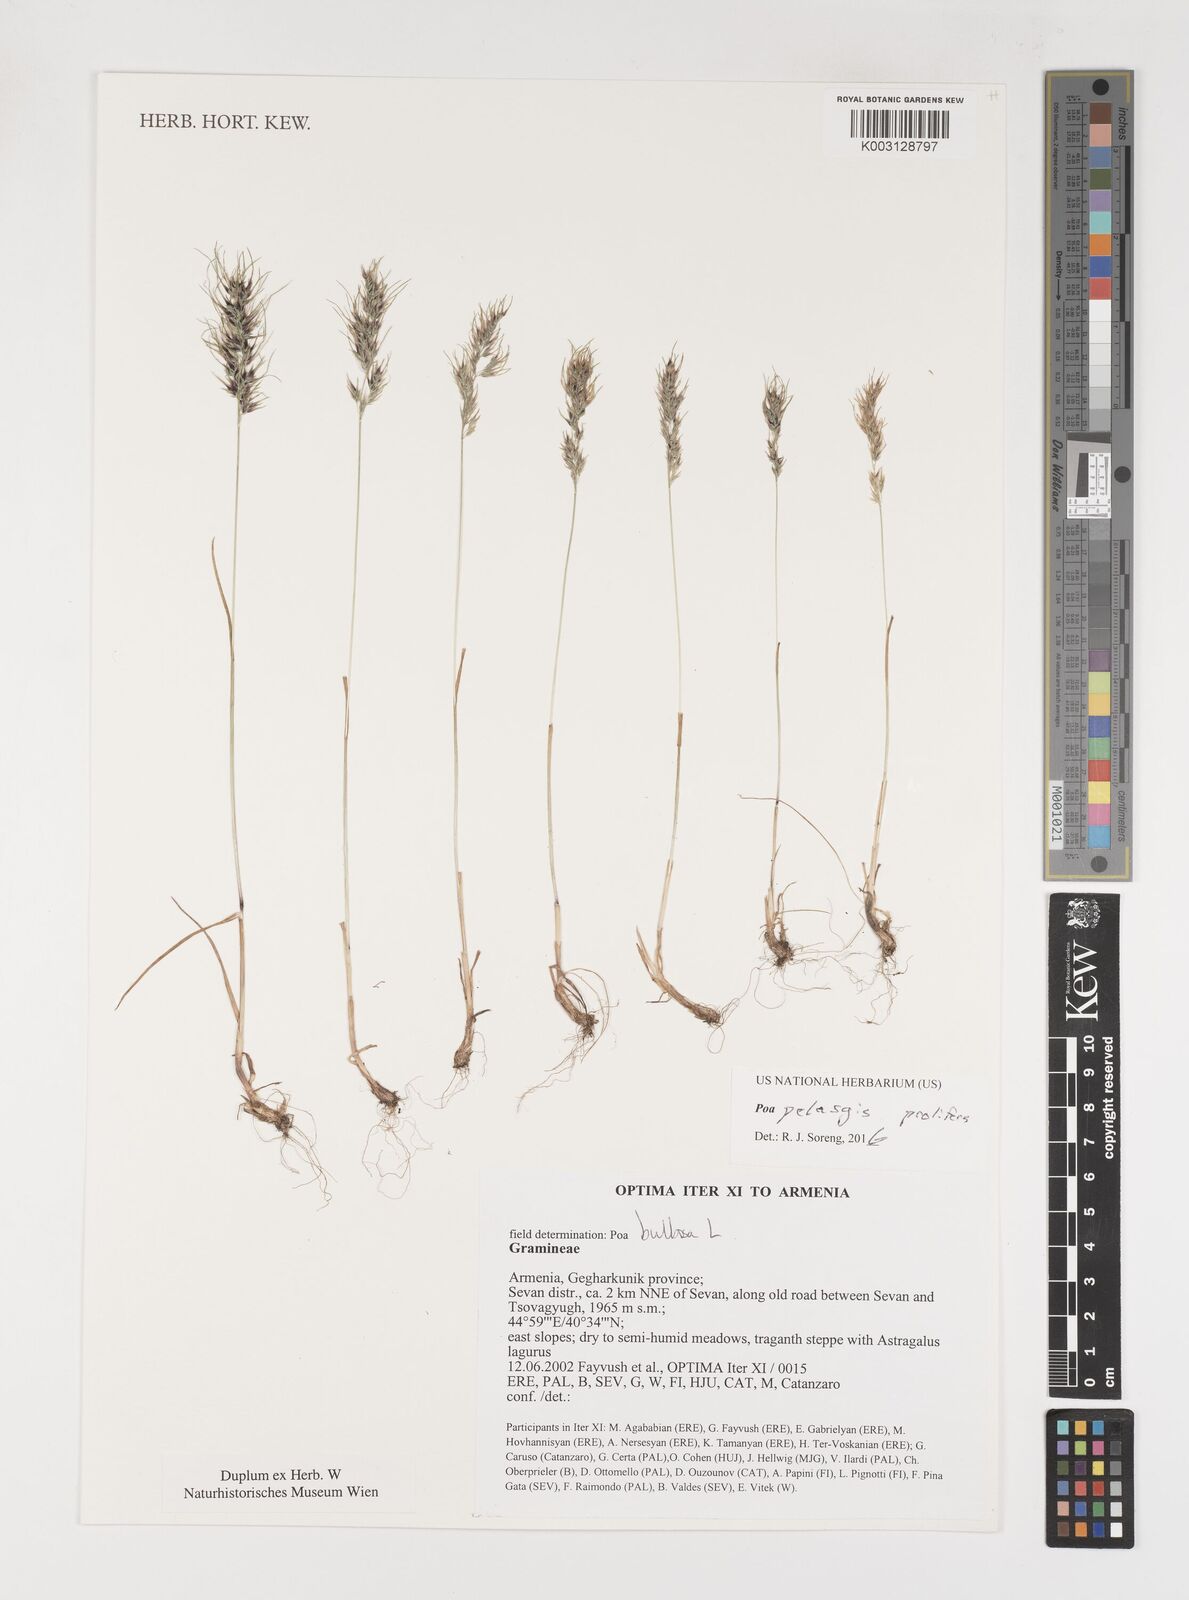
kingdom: Plantae
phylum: Tracheophyta
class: Liliopsida
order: Poales
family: Poaceae
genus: Poa
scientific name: Poa iconia
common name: Konya bluegrass
